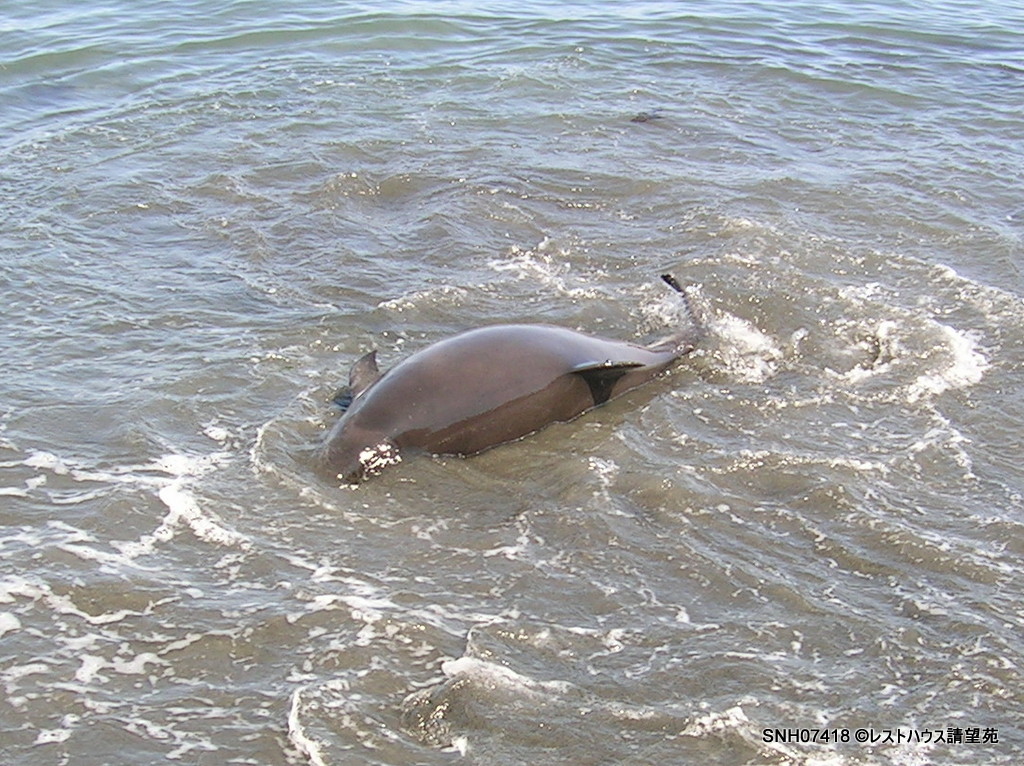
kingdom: Animalia
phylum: Chordata
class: Mammalia
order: Cetacea
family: Phocoenidae
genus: Phocoena
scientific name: Phocoena phocoena
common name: Harbour porpoise
